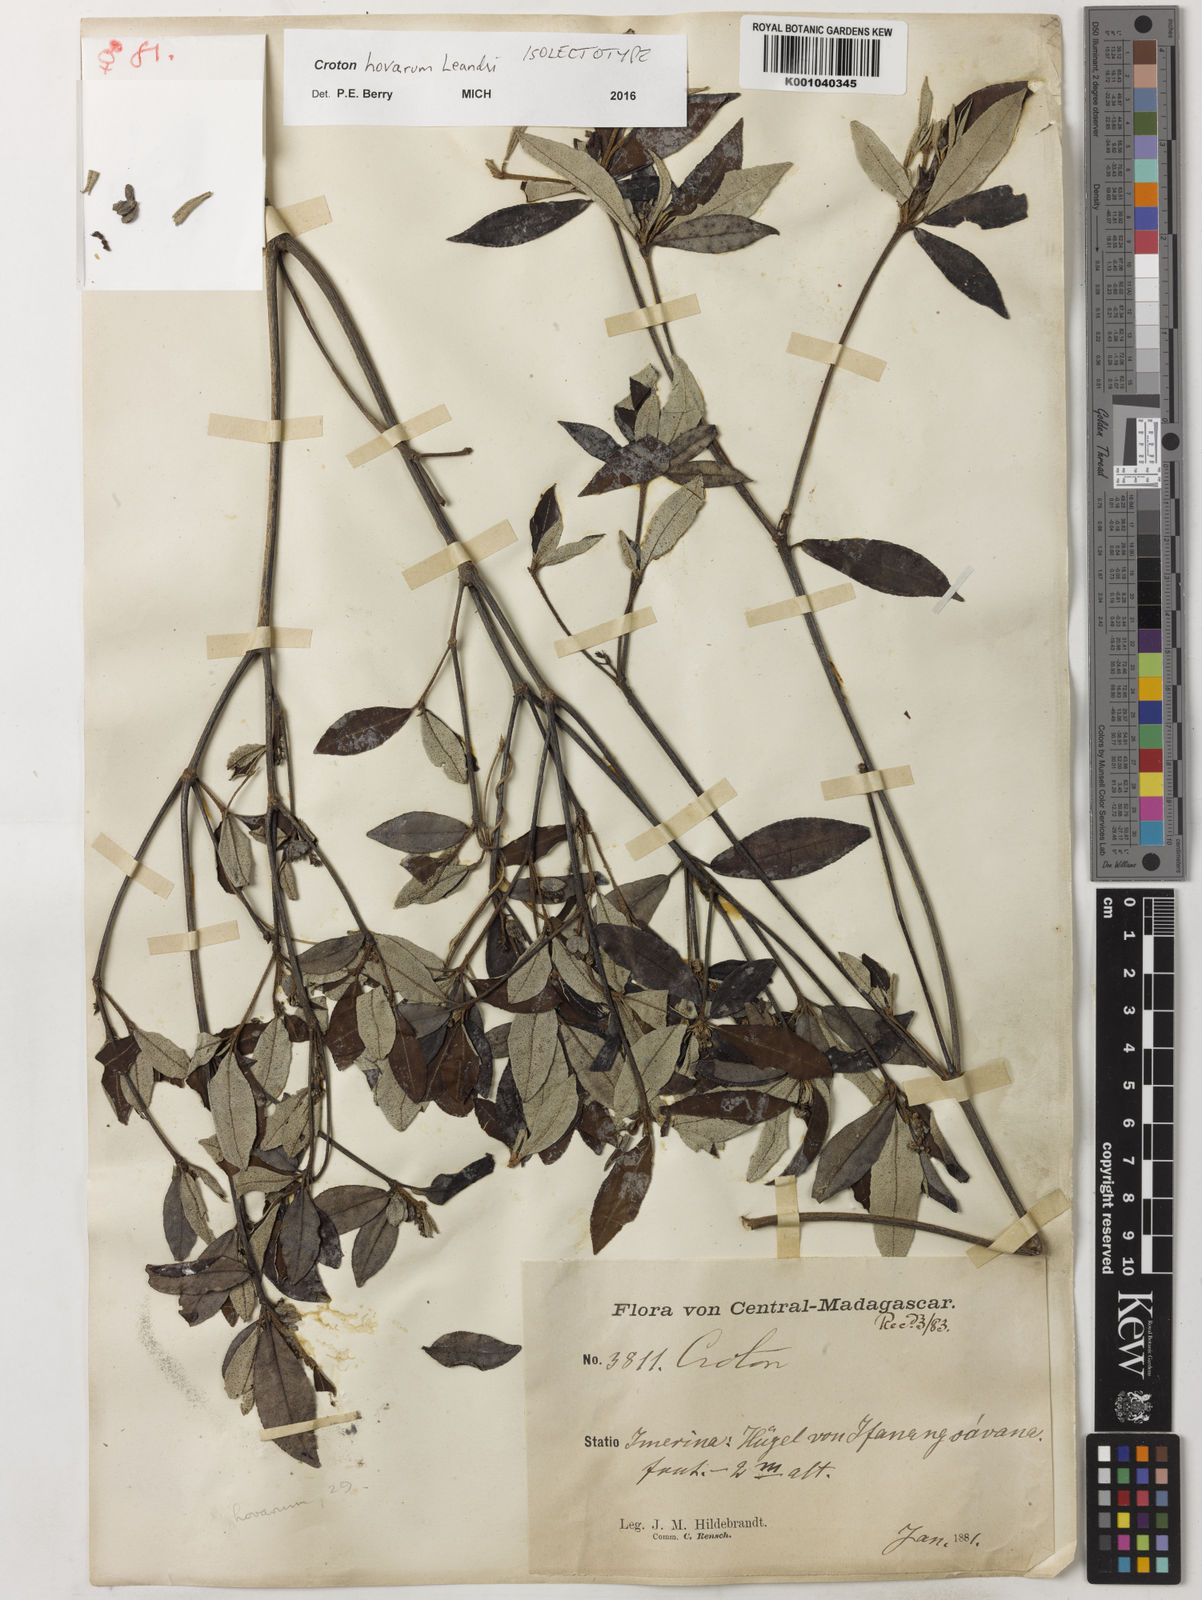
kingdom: Plantae
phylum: Tracheophyta
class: Magnoliopsida
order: Malpighiales
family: Euphorbiaceae
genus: Croton
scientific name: Croton hovarum
